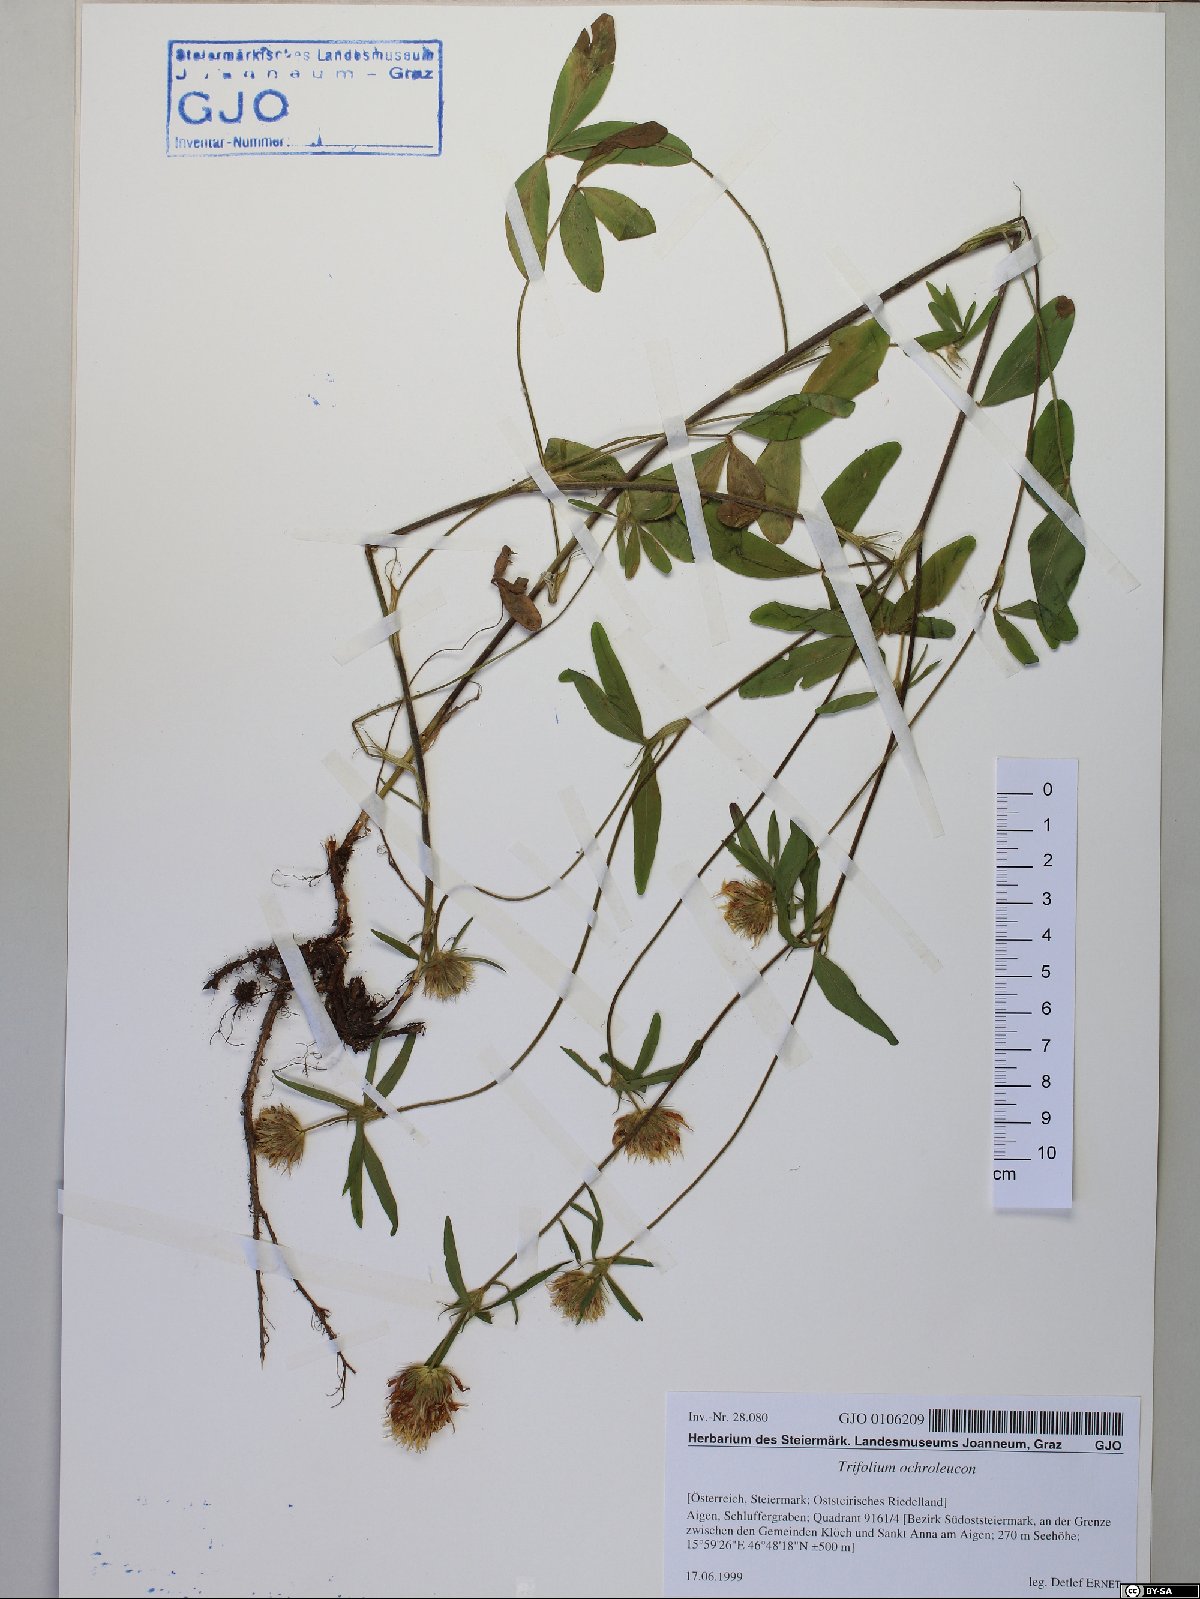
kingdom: Plantae
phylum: Tracheophyta
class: Magnoliopsida
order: Fabales
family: Fabaceae
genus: Trifolium
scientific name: Trifolium ochroleucon
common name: Sulphur clover
